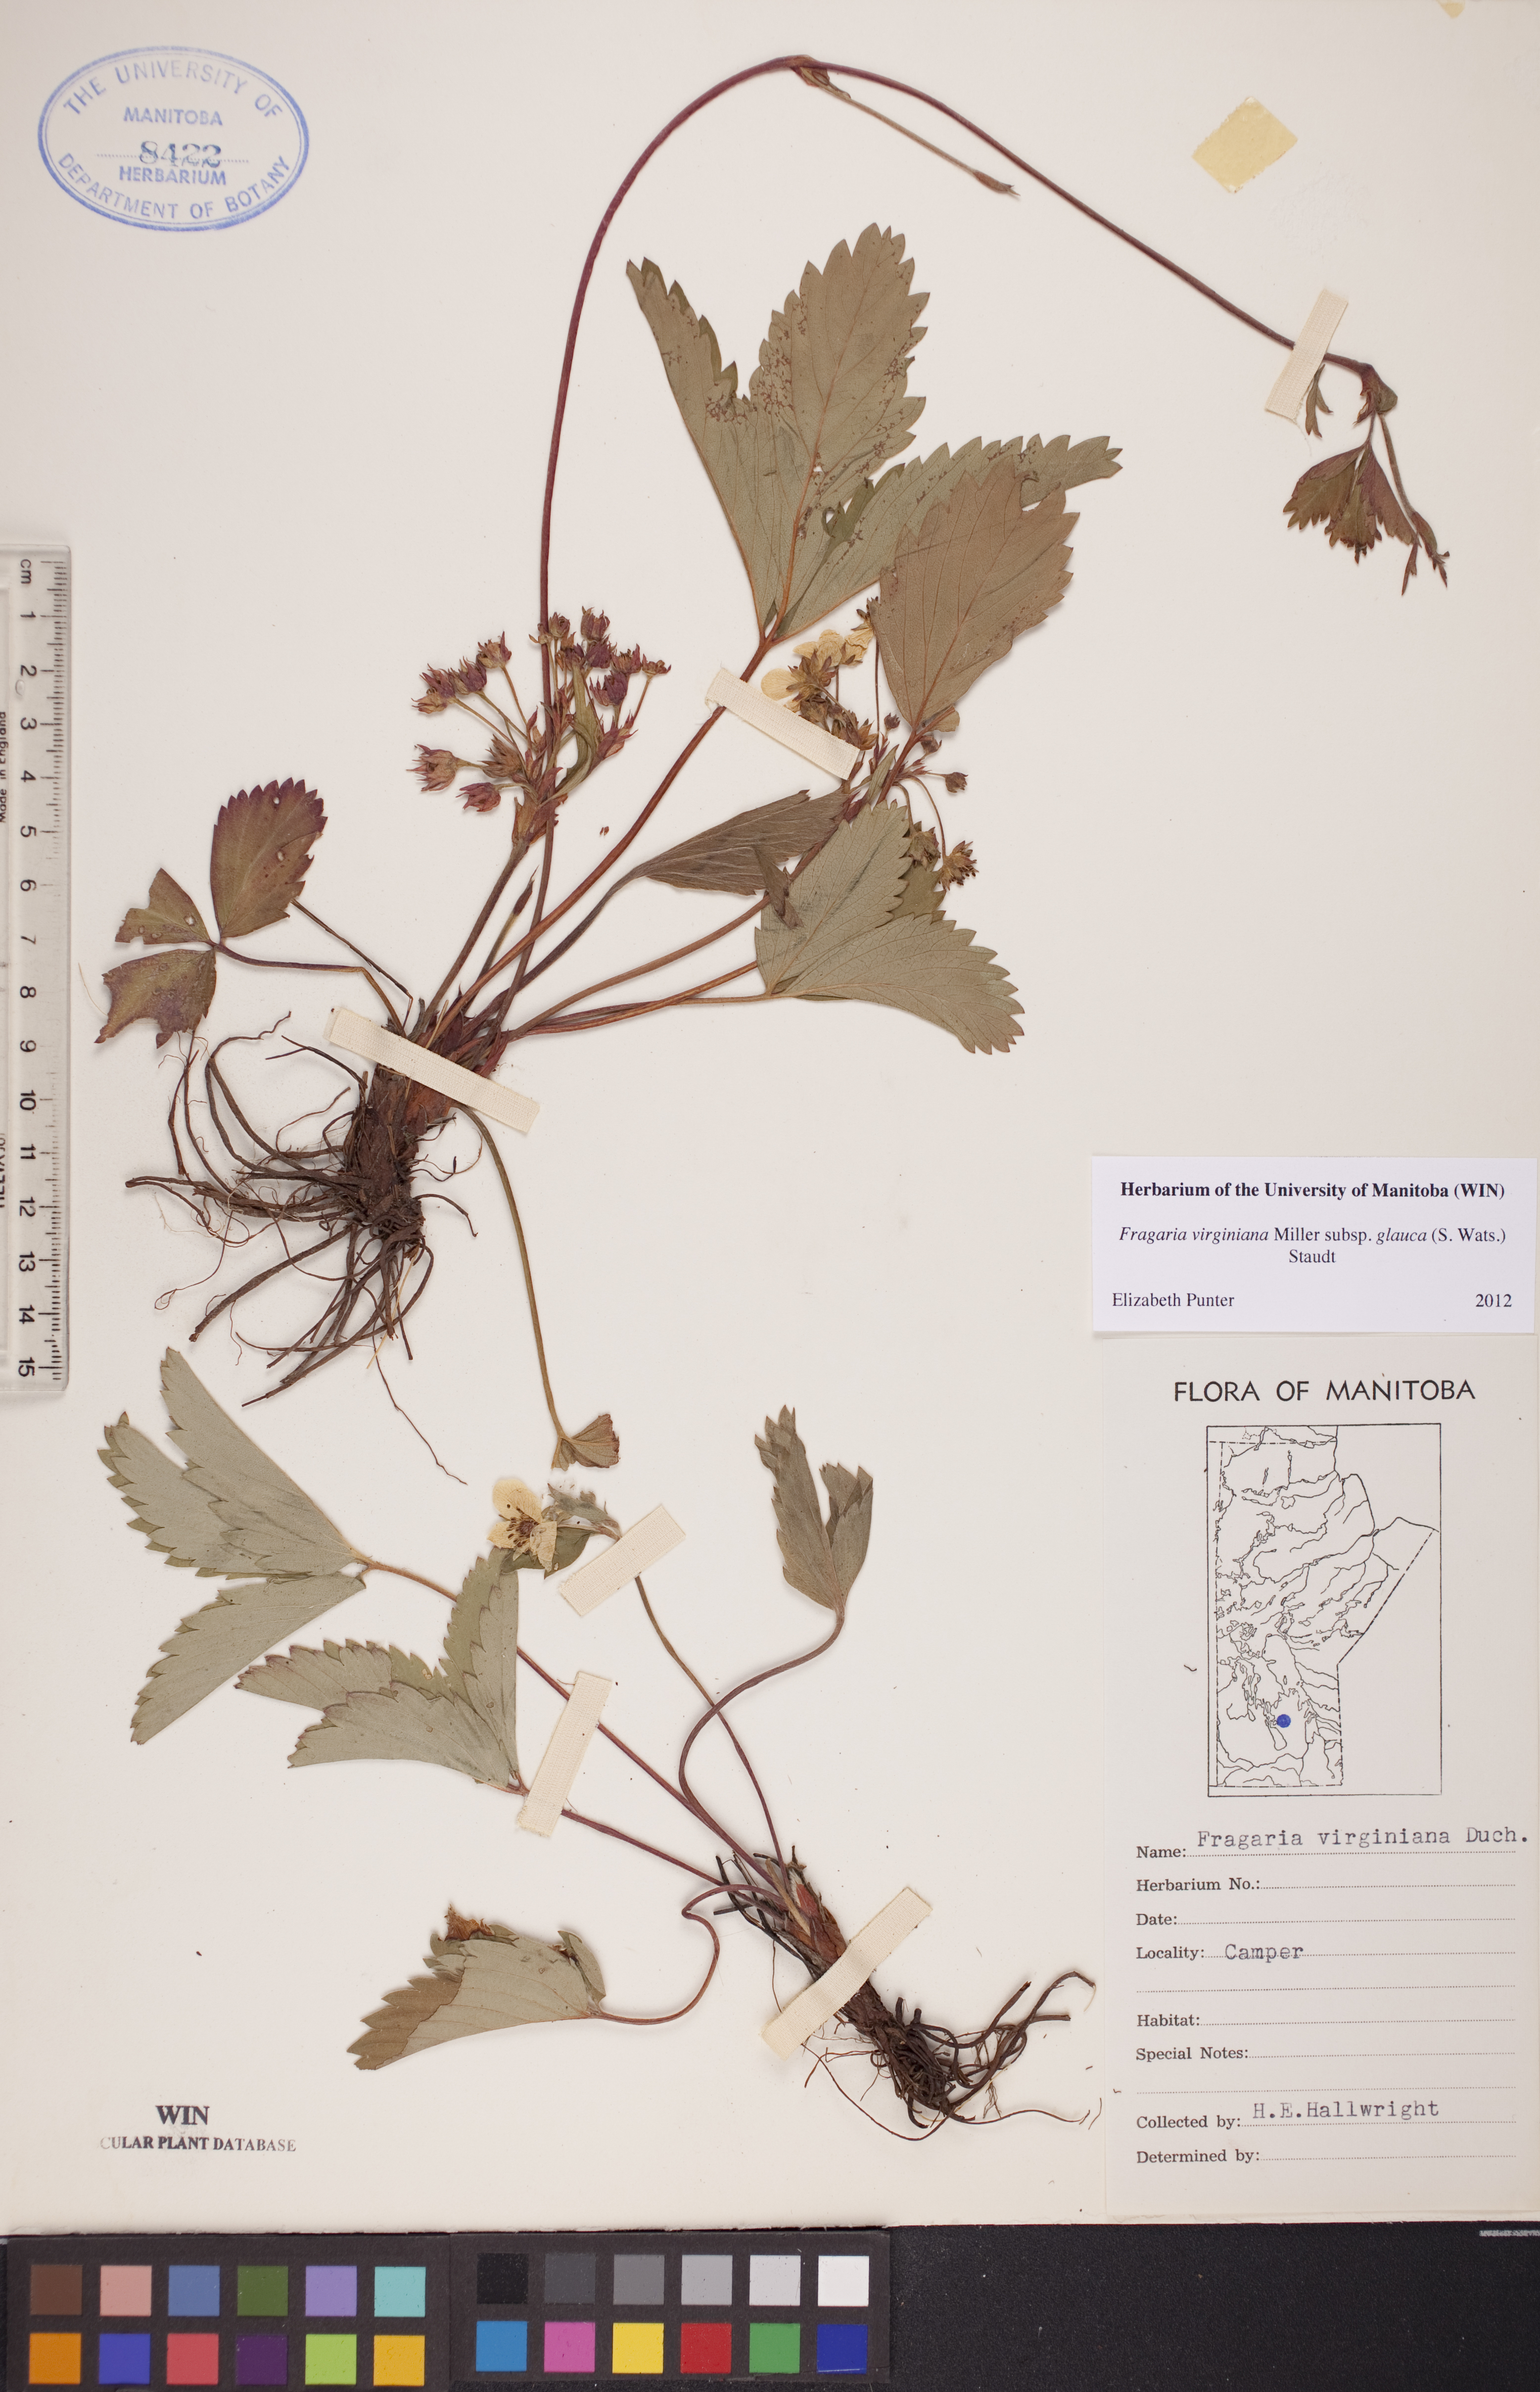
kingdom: Plantae
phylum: Tracheophyta
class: Magnoliopsida
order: Rosales
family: Rosaceae
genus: Fragaria
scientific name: Fragaria virginiana
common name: Thickleaved wild strawberry
